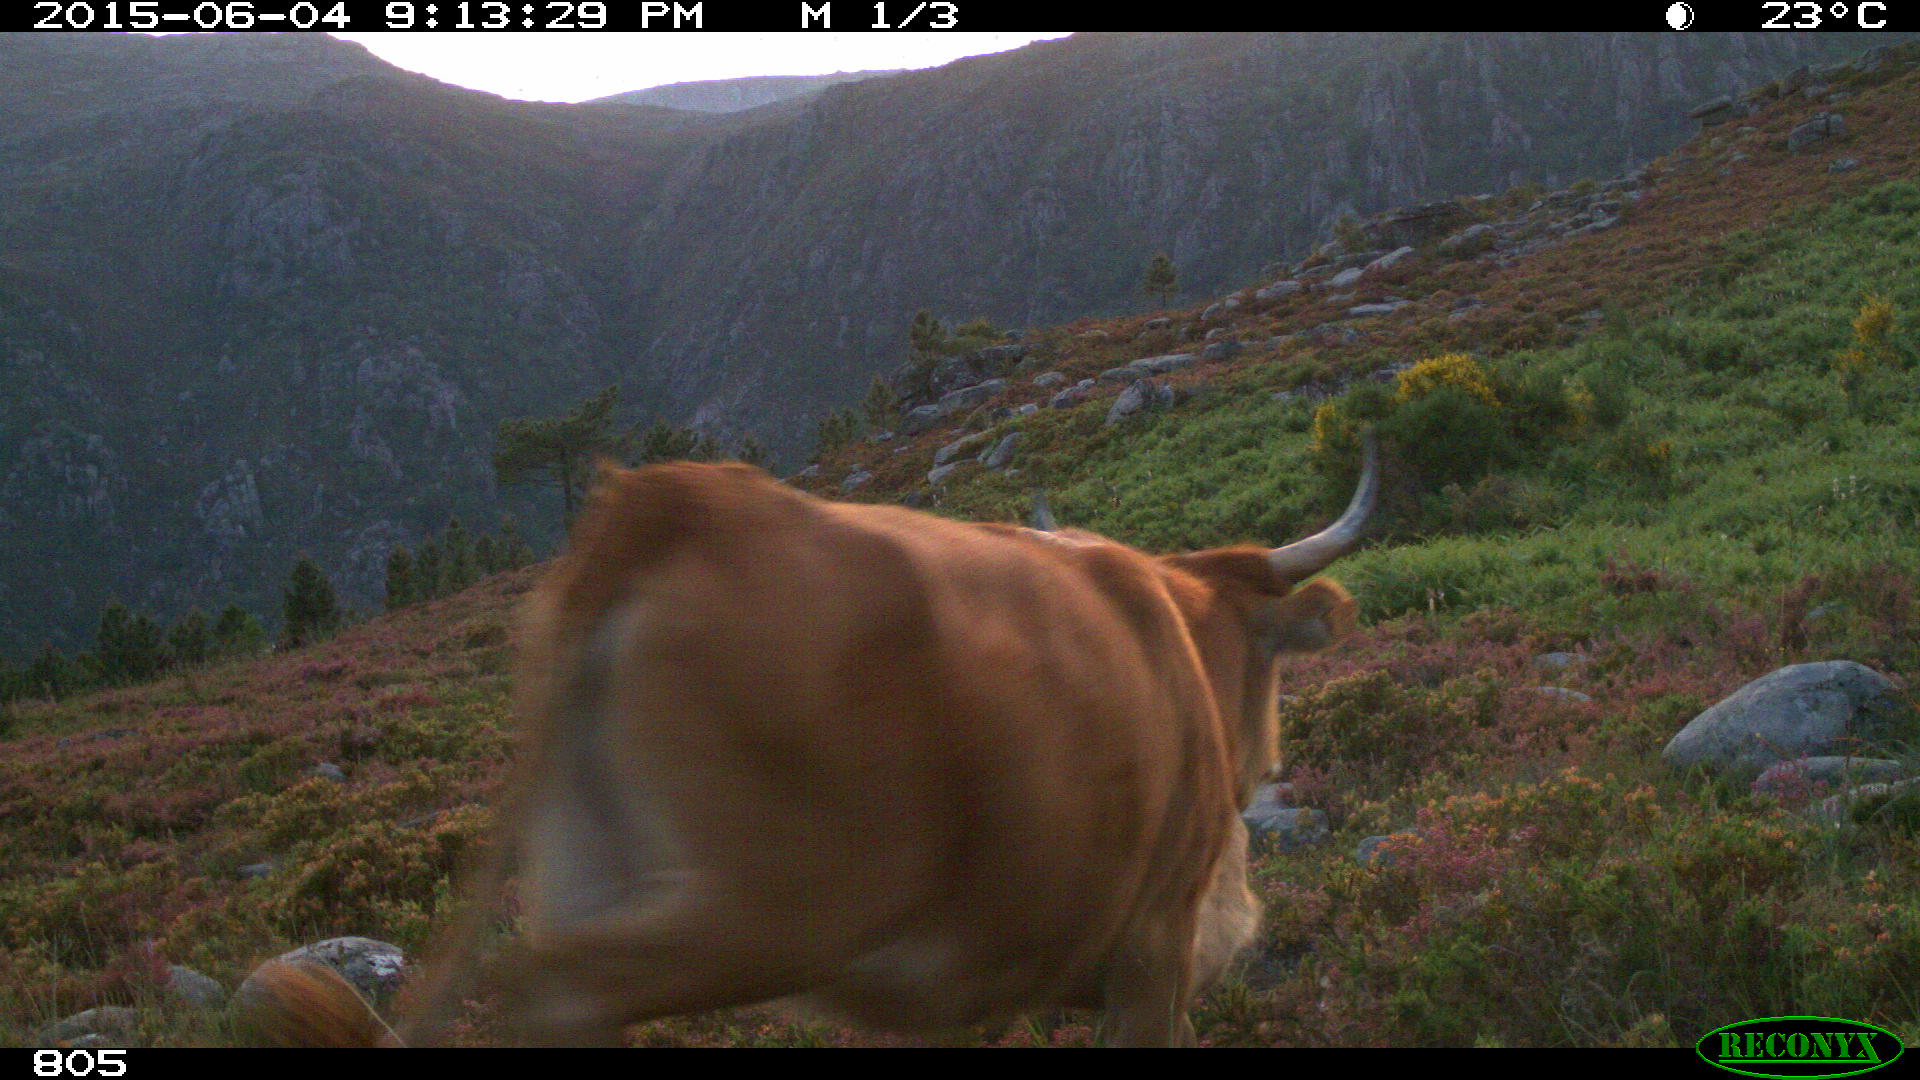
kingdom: Animalia
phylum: Chordata
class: Mammalia
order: Artiodactyla
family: Bovidae
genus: Bos
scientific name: Bos taurus
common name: Domesticated cattle
